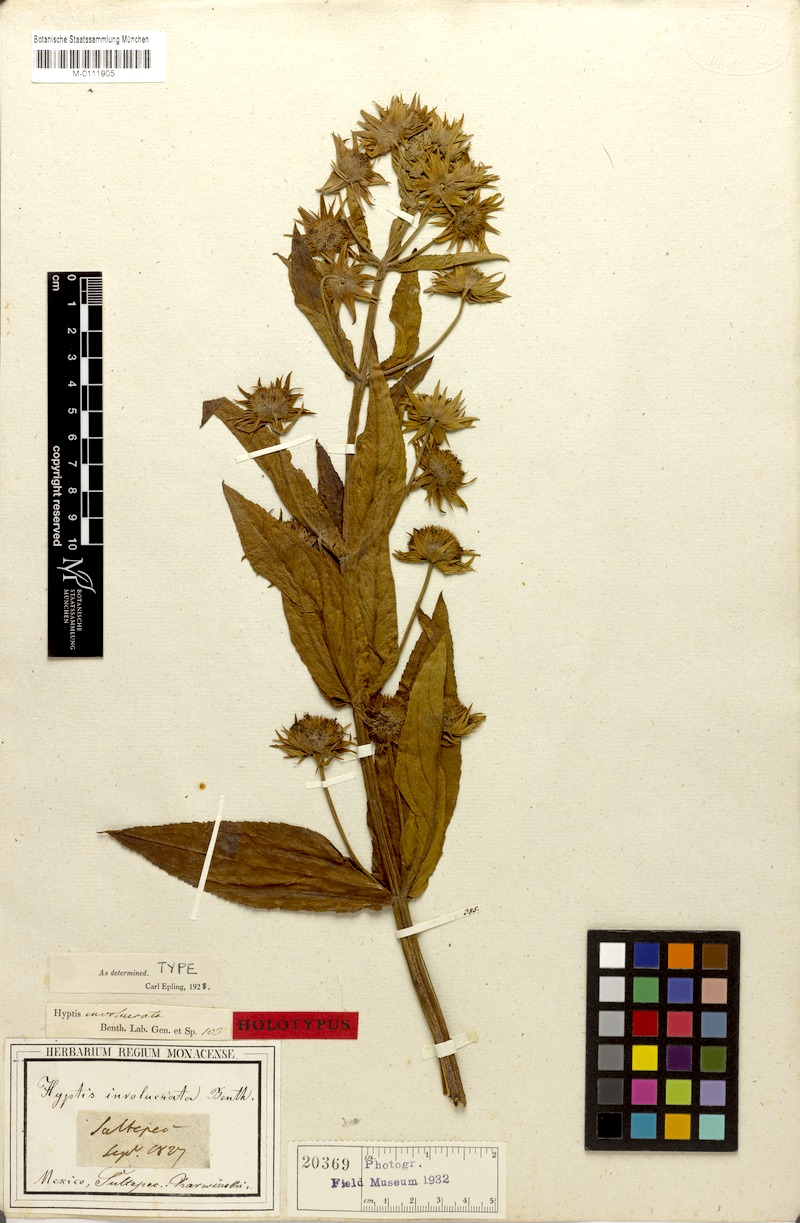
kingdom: Plantae
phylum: Tracheophyta
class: Magnoliopsida
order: Lamiales
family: Lamiaceae
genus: Hyptis
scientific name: Hyptis involucrata
